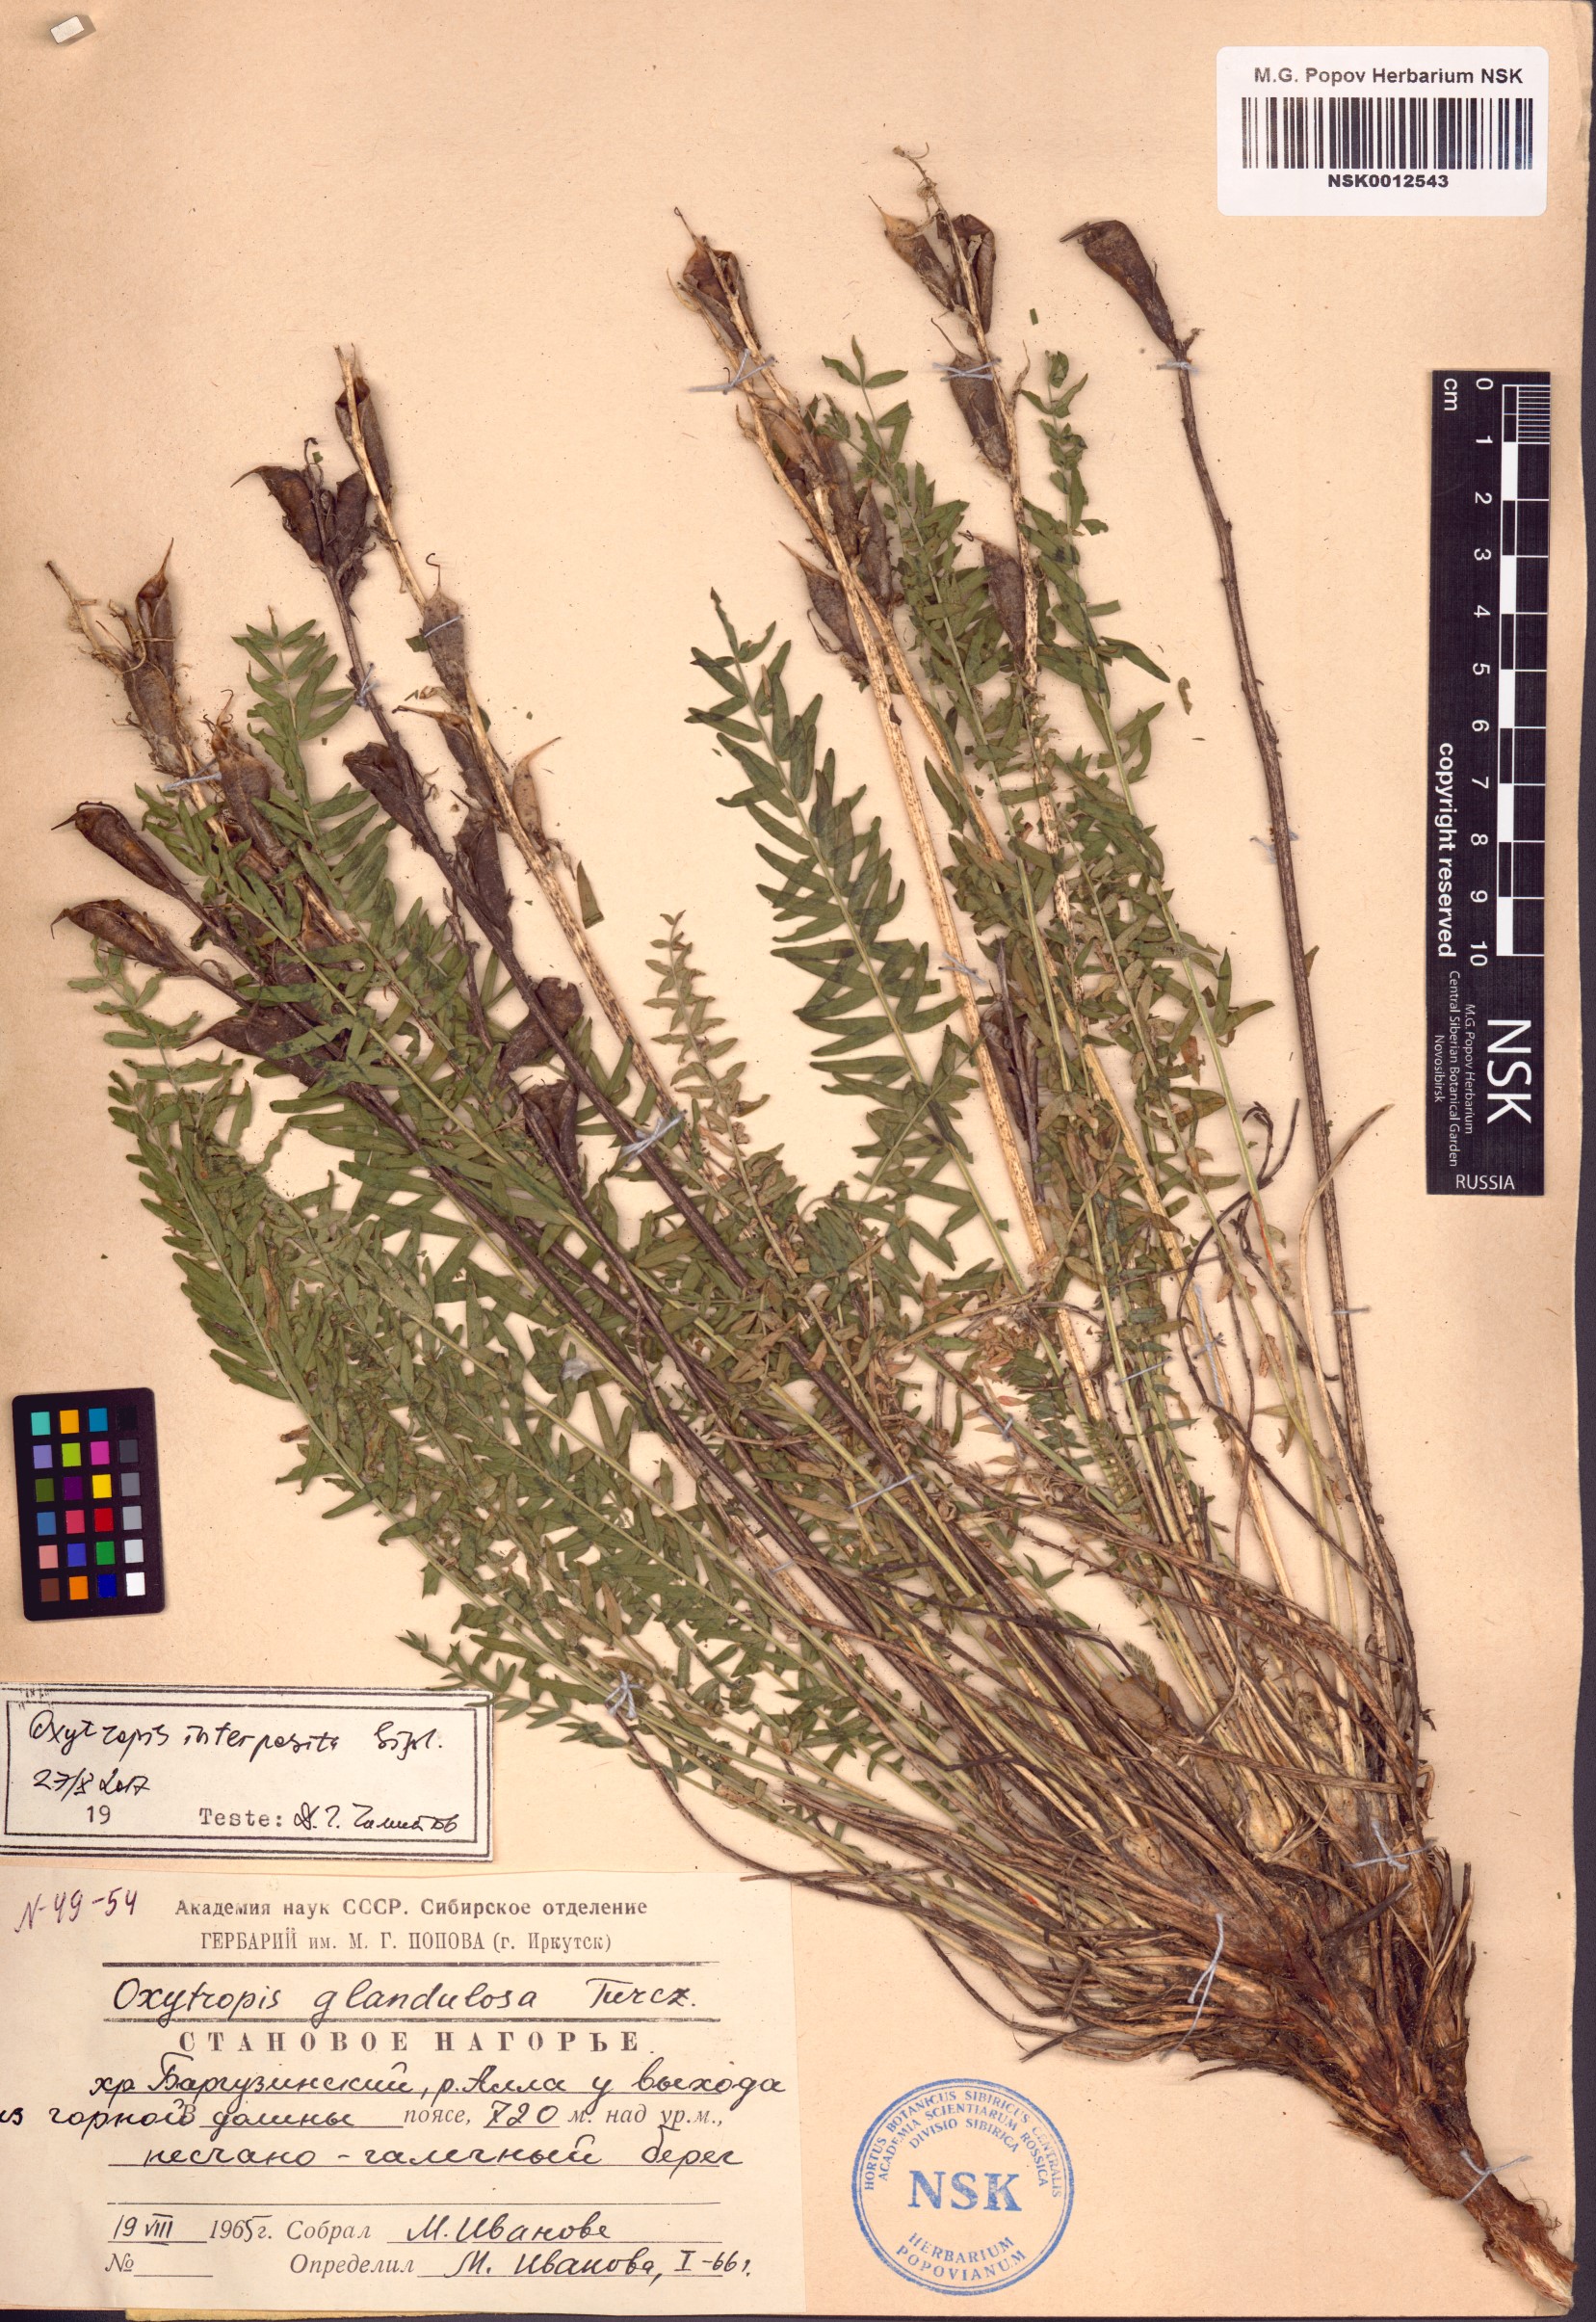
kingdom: Plantae
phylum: Tracheophyta
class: Magnoliopsida
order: Fabales
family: Fabaceae
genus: Oxytropis
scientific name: Oxytropis interposita
